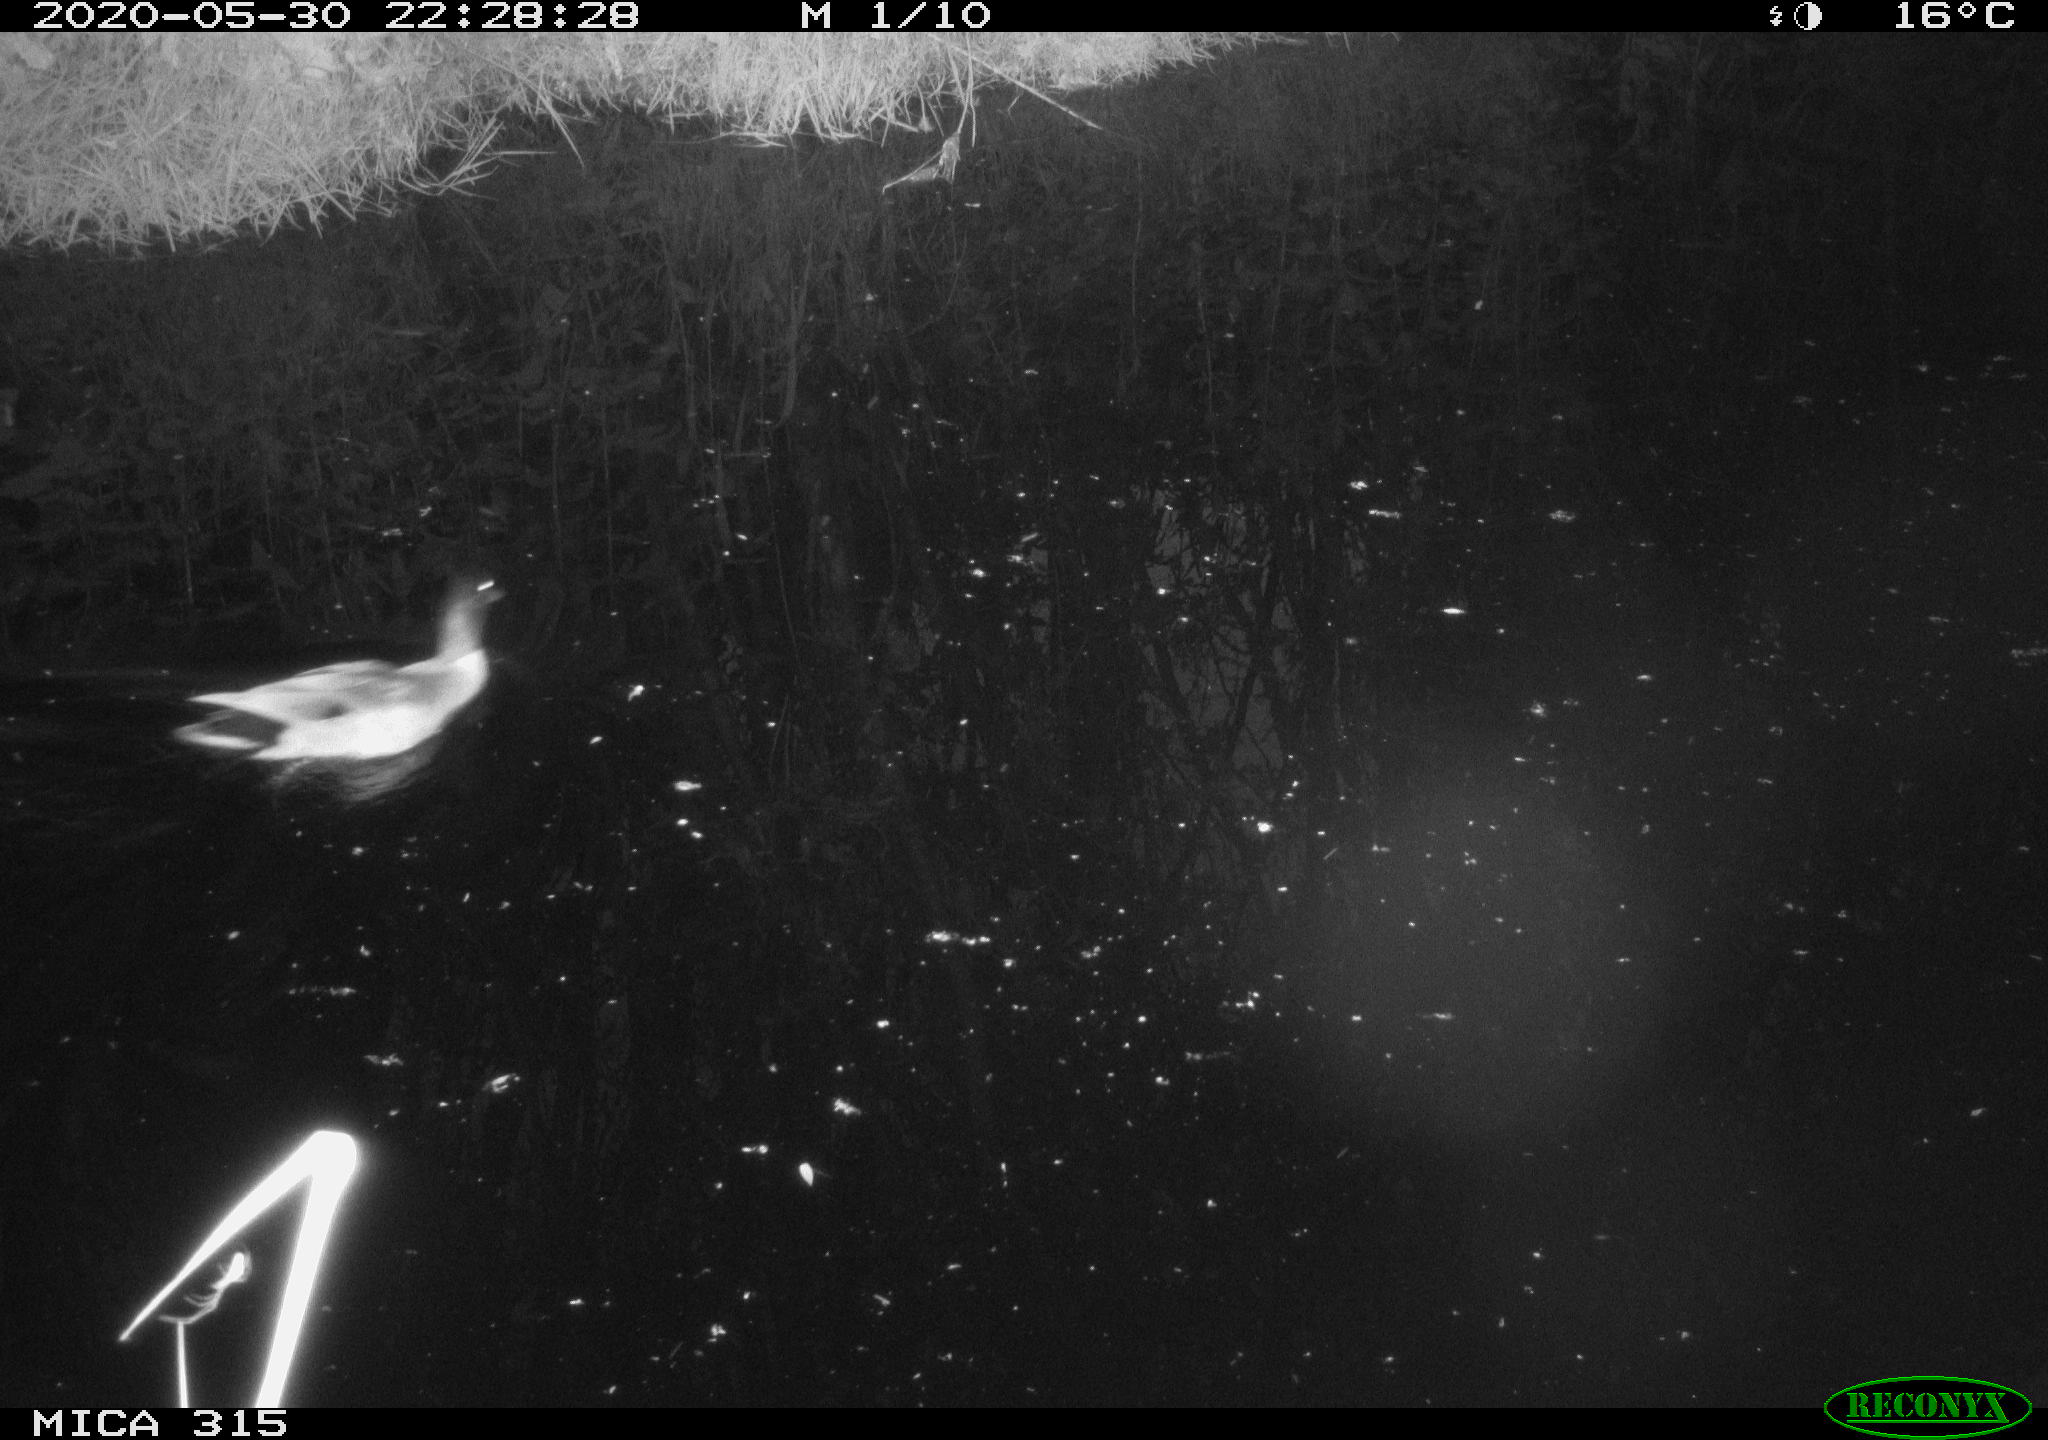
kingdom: Animalia
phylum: Chordata
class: Aves
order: Anseriformes
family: Anatidae
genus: Anas
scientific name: Anas platyrhynchos
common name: Mallard
